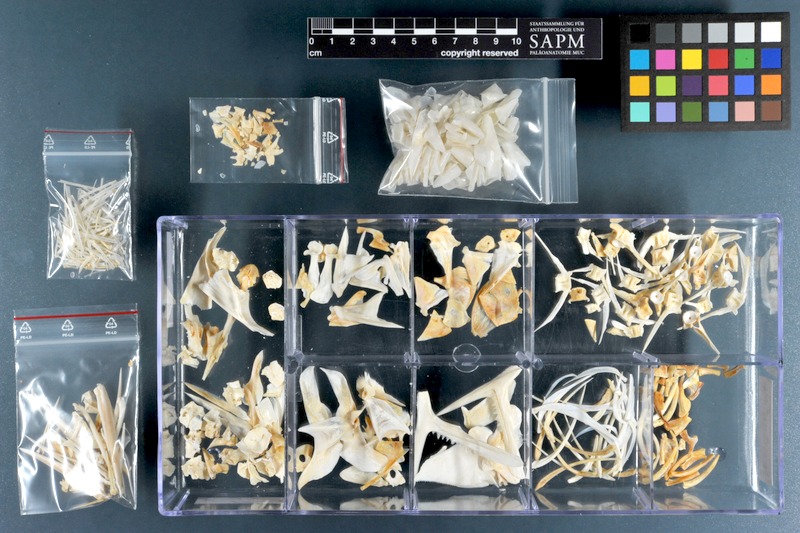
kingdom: Animalia
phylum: Chordata
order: Beryciformes
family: Holocentridae
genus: Sargocentron
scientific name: Sargocentron spiniferum
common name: Giant squirrelfish
